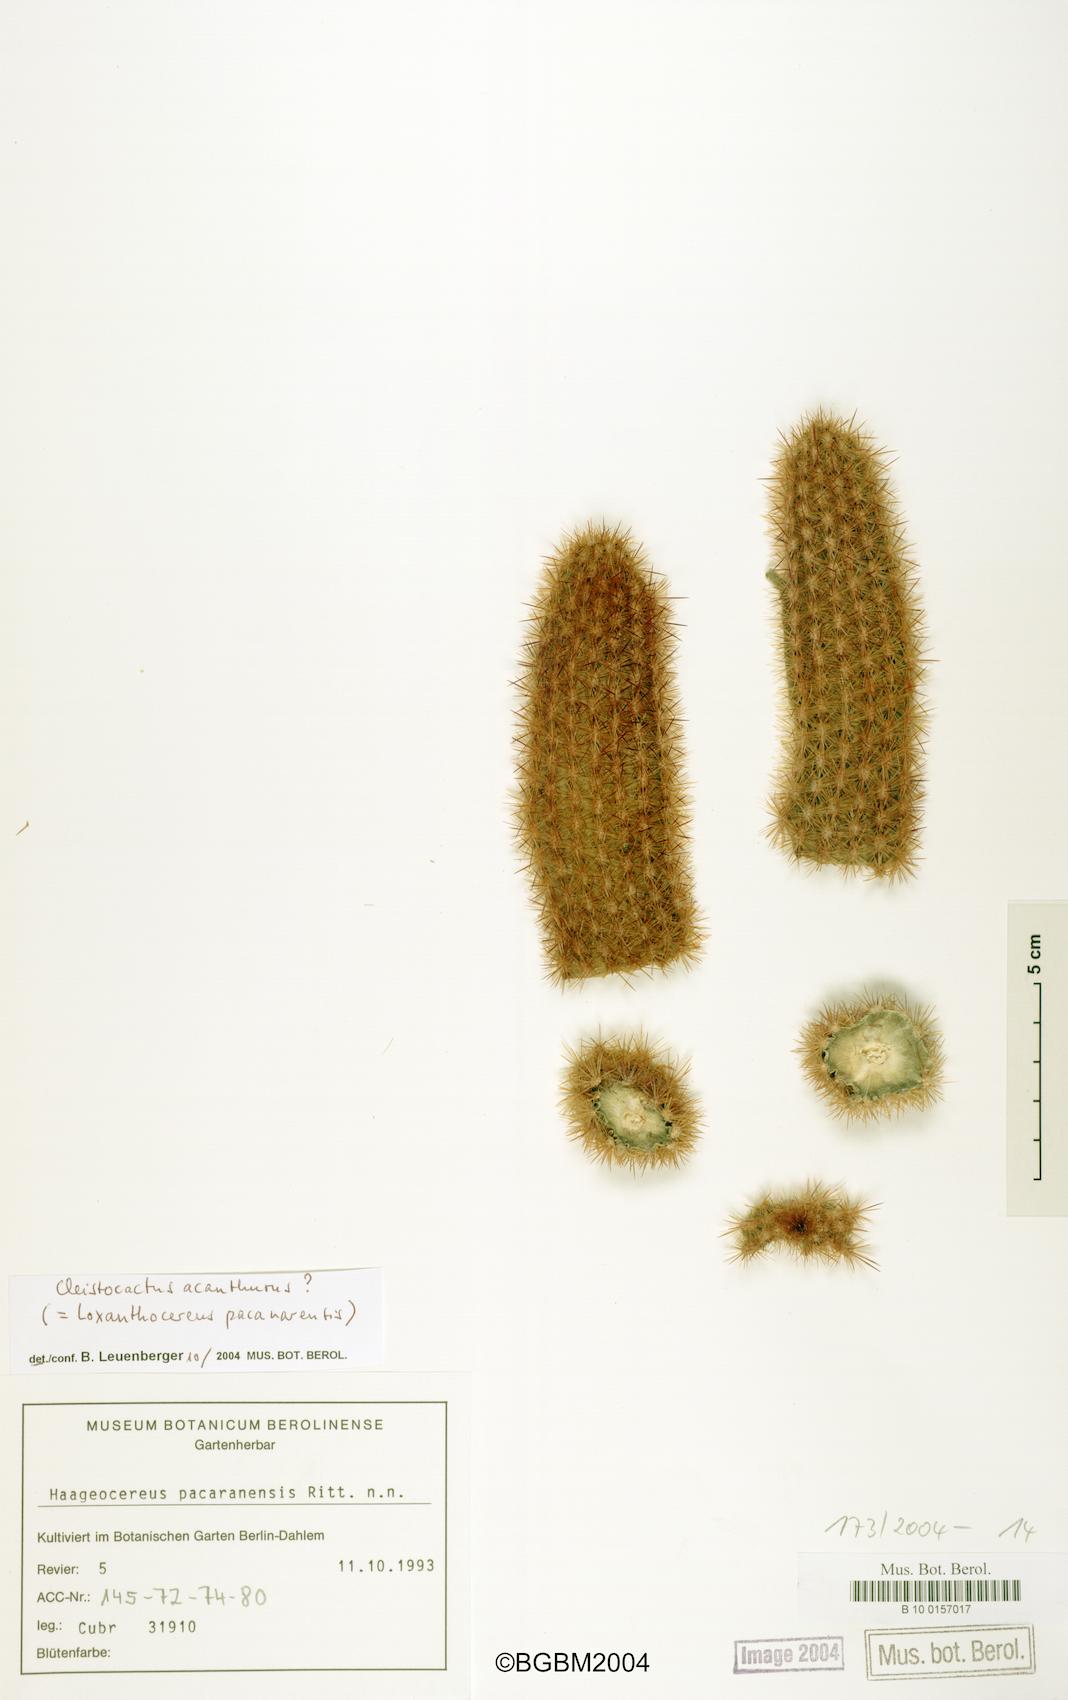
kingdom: Plantae
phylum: Tracheophyta
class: Magnoliopsida
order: Caryophyllales
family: Cactaceae
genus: Borzicactus
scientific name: Borzicactus acanthurus
